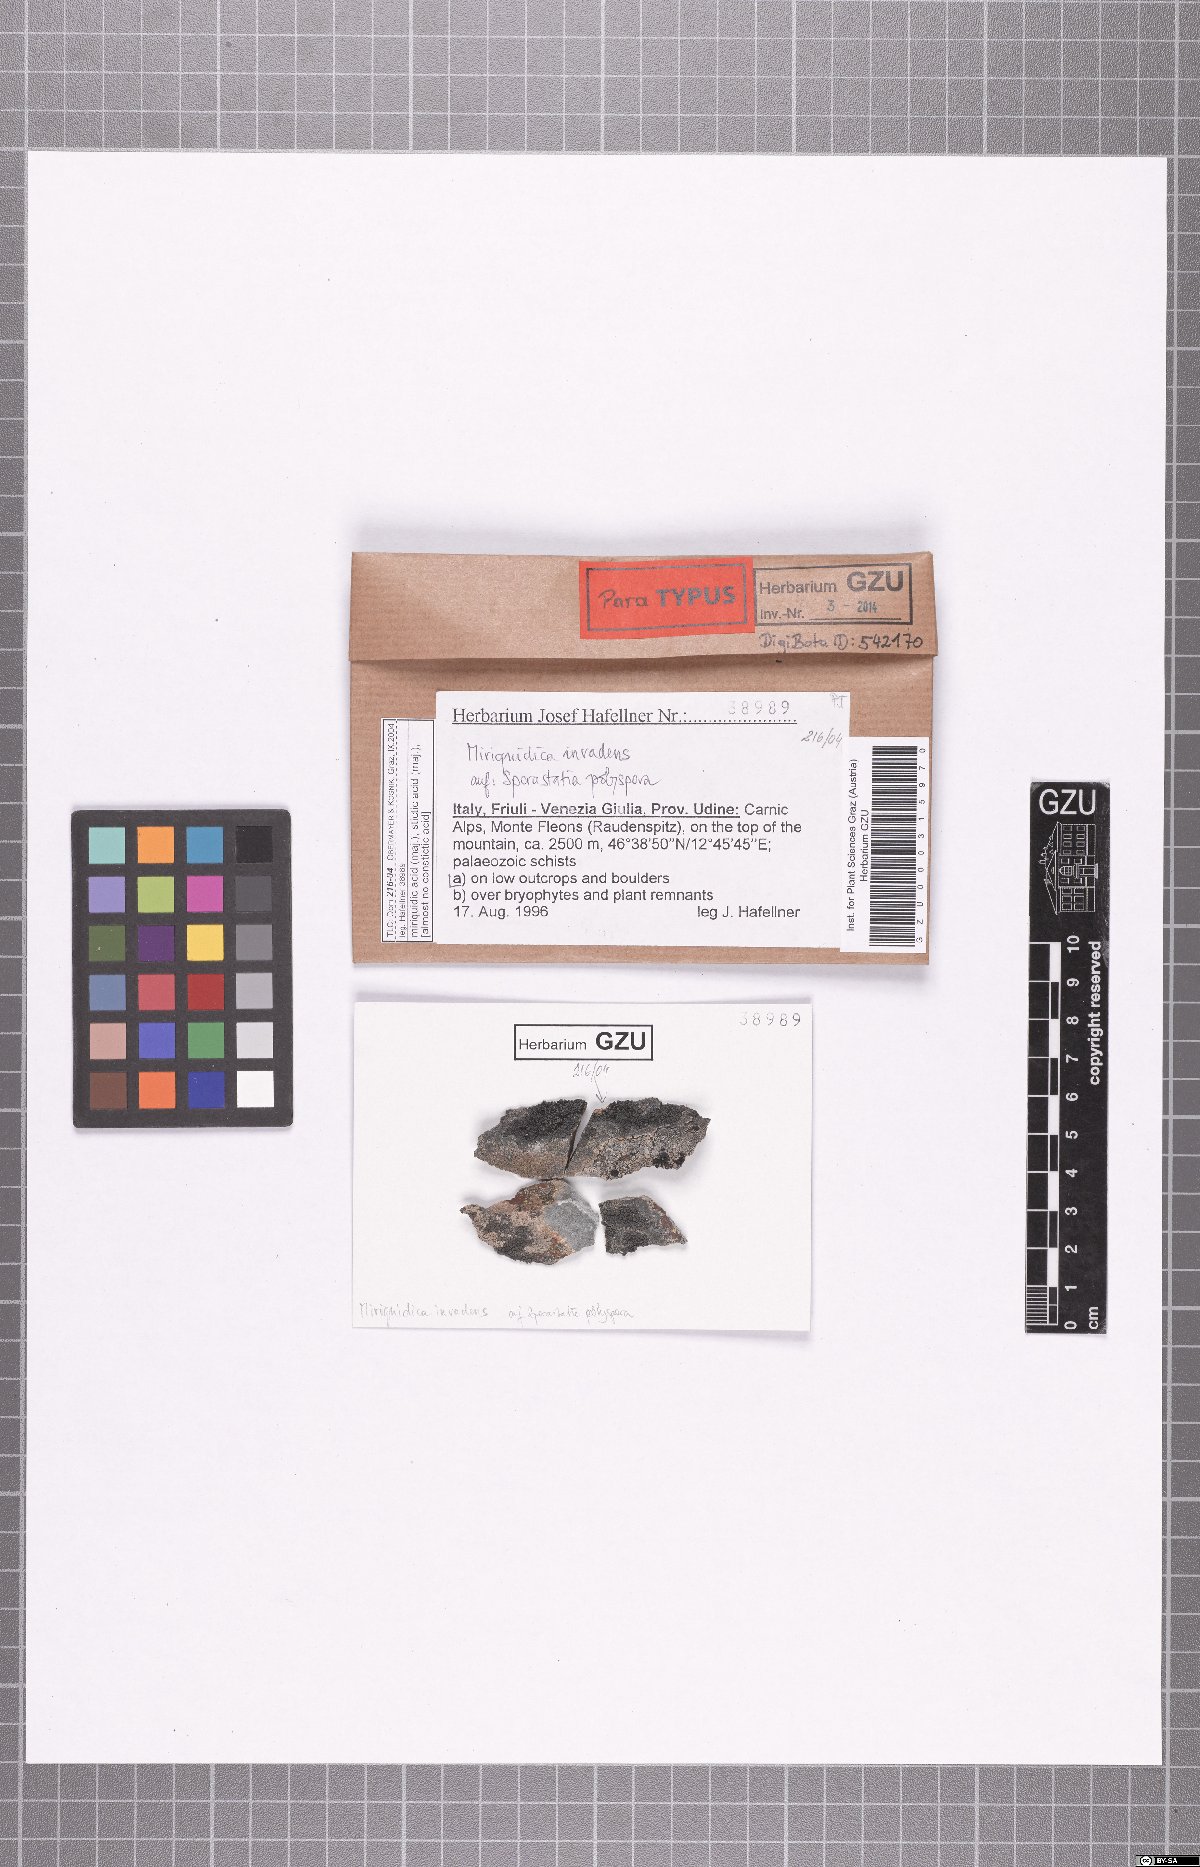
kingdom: Fungi
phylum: Ascomycota
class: Lecanoromycetes
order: Lecanorales
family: Lecanoraceae
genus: Miriquidica
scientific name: Miriquidica invadens
